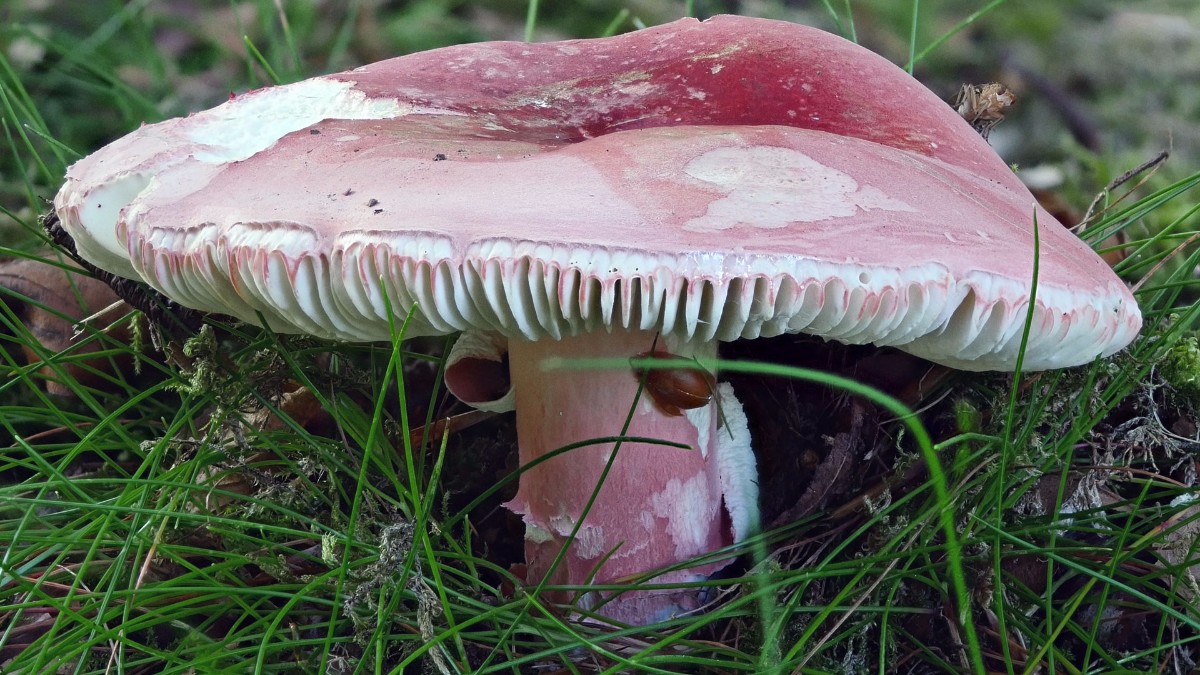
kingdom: Fungi
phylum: Basidiomycota
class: Agaricomycetes
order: Russulales
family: Russulaceae
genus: Russula
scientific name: Russula rosea
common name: fastkødet skørhat
